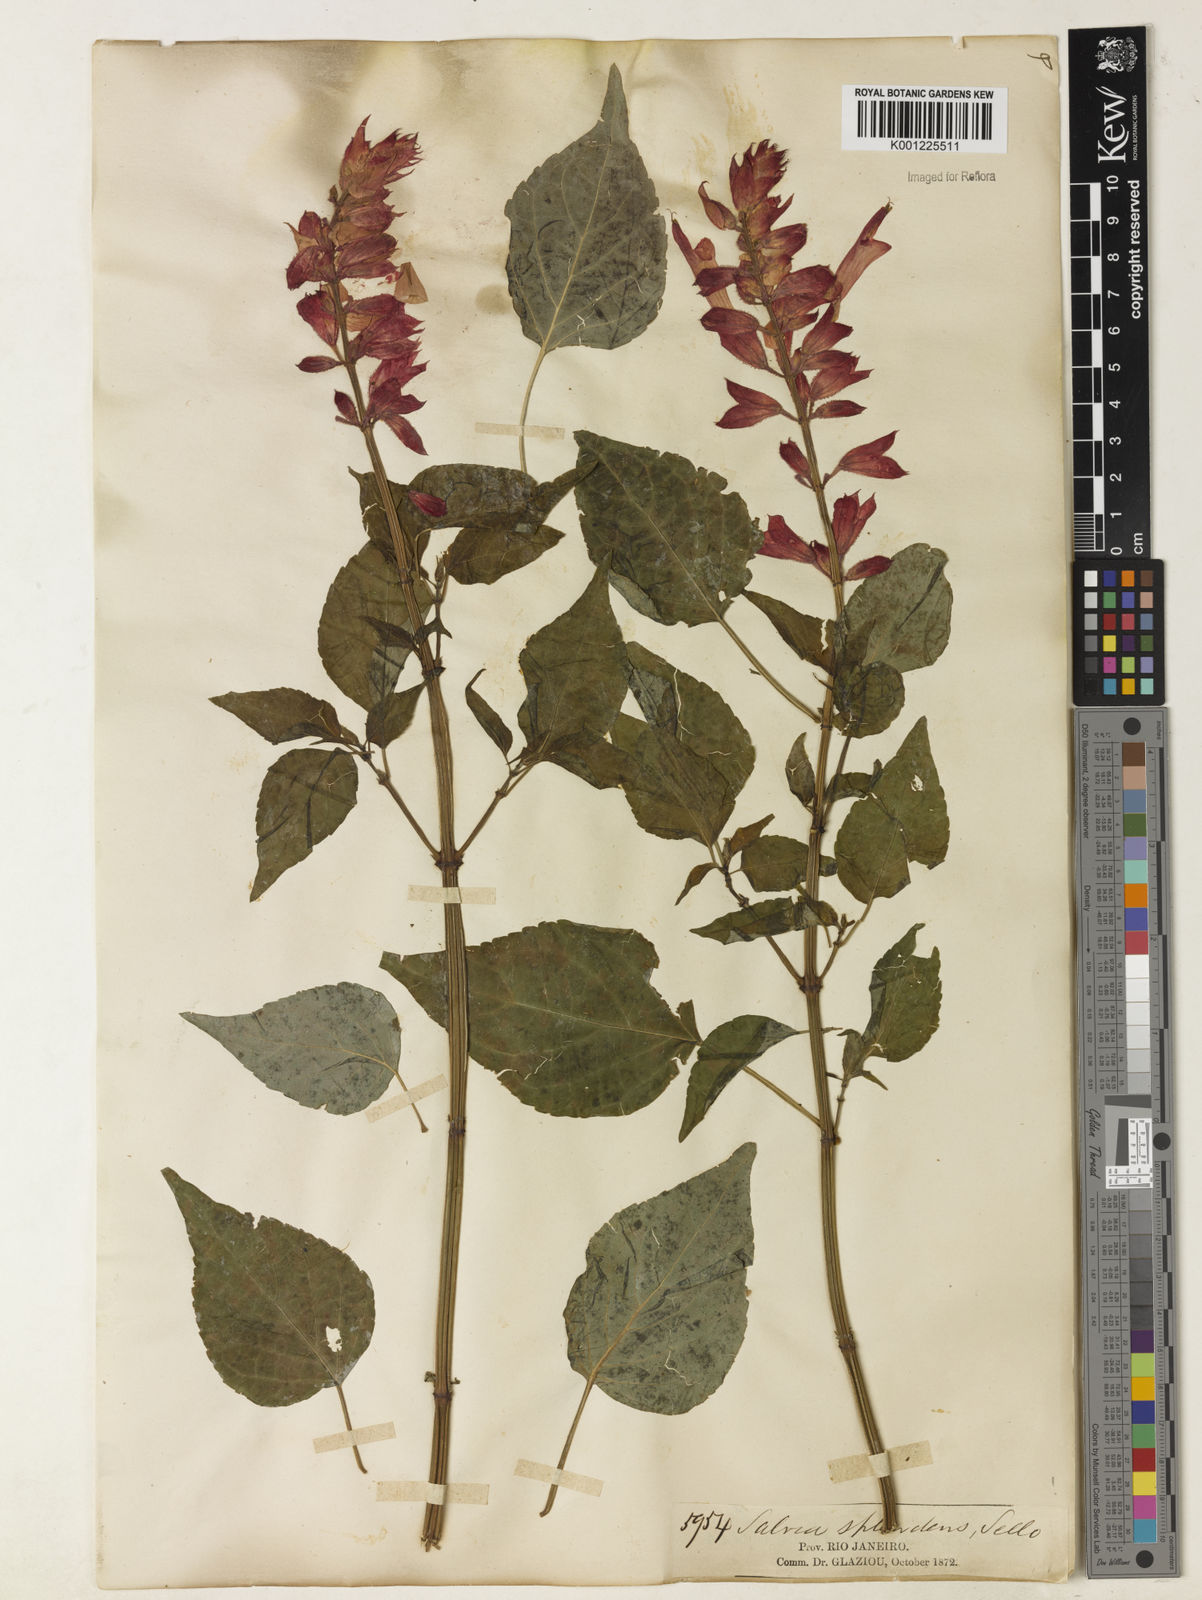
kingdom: Plantae
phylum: Tracheophyta
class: Magnoliopsida
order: Lamiales
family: Lamiaceae
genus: Salvia
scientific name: Salvia
